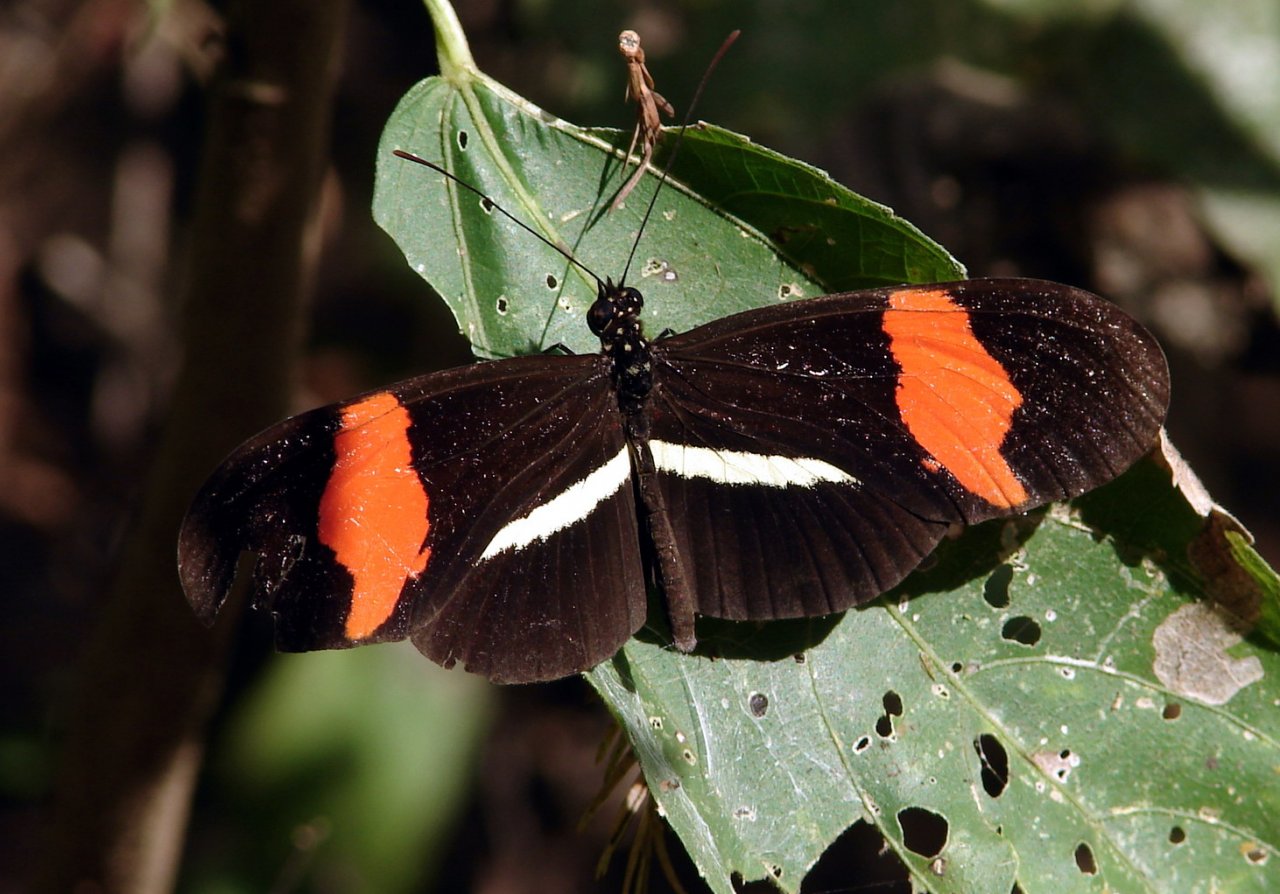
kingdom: Animalia
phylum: Arthropoda
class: Insecta
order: Lepidoptera
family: Nymphalidae
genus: Heliconius
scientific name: Heliconius erato
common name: Erato Heliconian
